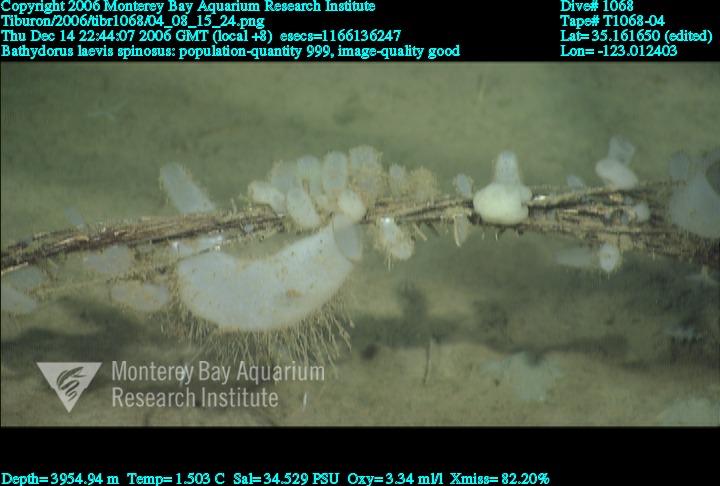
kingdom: Animalia
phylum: Porifera
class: Hexactinellida
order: Lyssacinosida
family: Rossellidae
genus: Bathydorus
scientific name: Bathydorus spinosus
